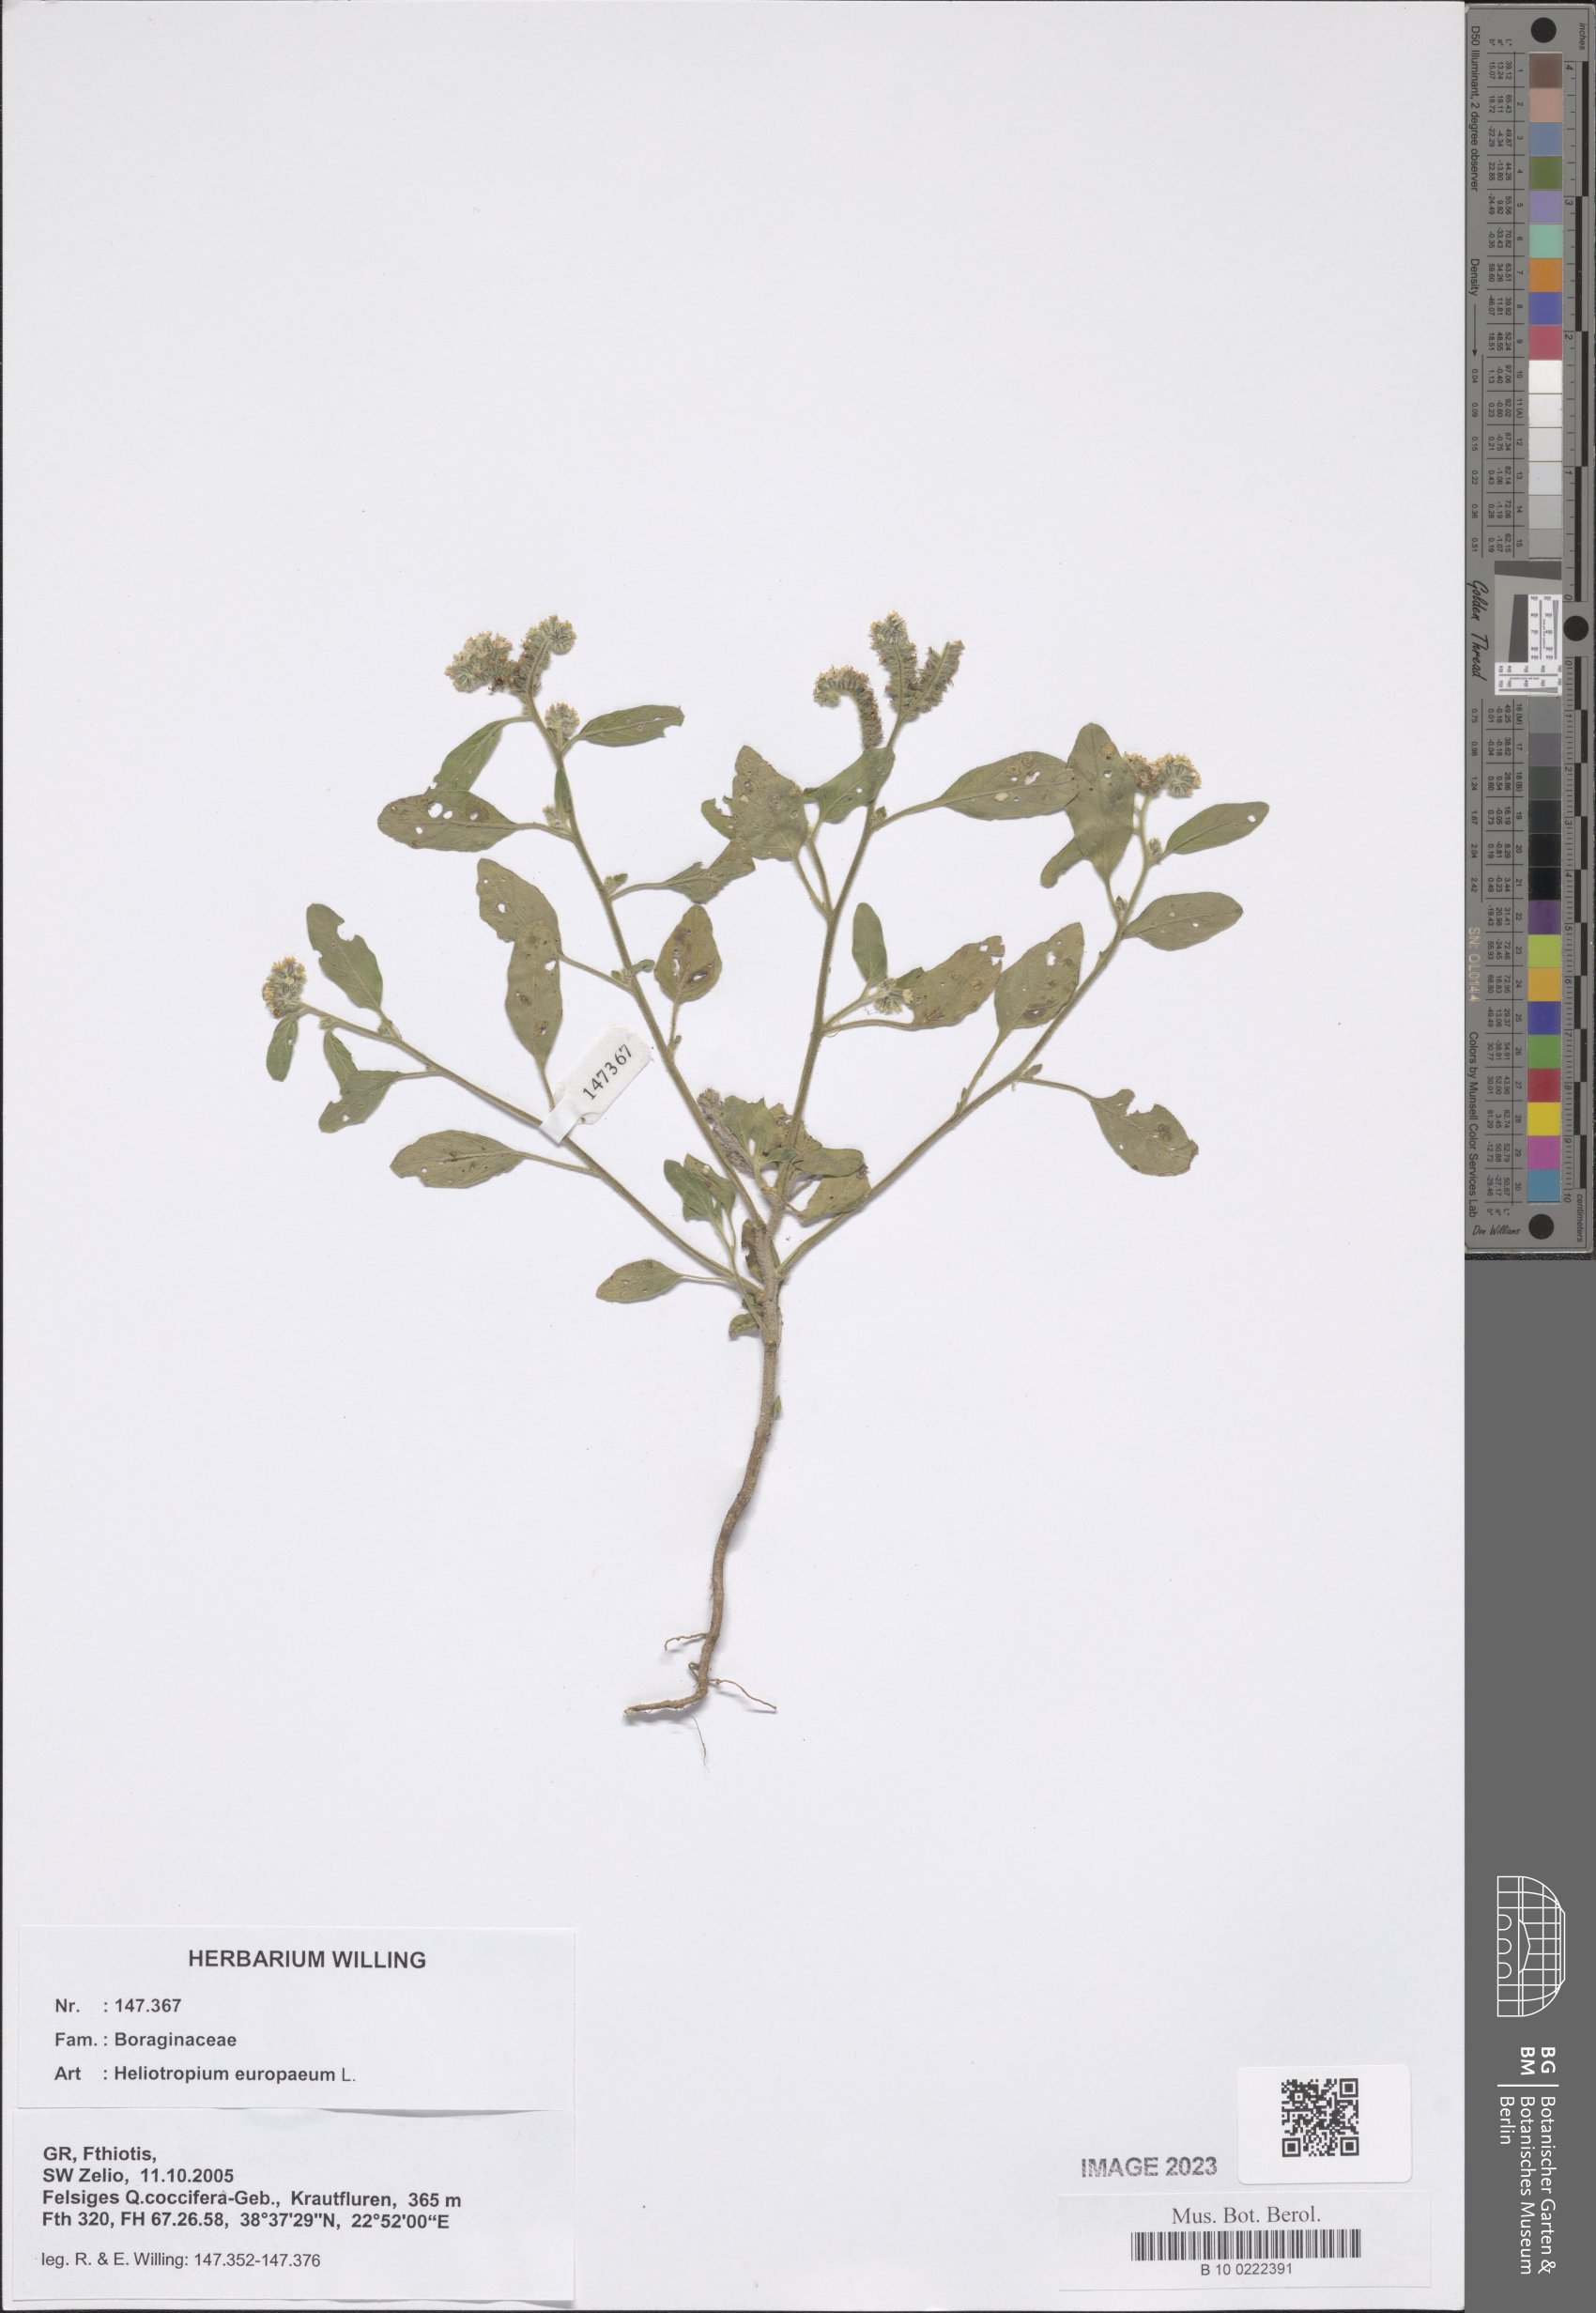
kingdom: Plantae
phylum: Tracheophyta
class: Magnoliopsida
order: Boraginales
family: Heliotropiaceae
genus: Heliotropium
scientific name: Heliotropium europaeum
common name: European heliotrope
